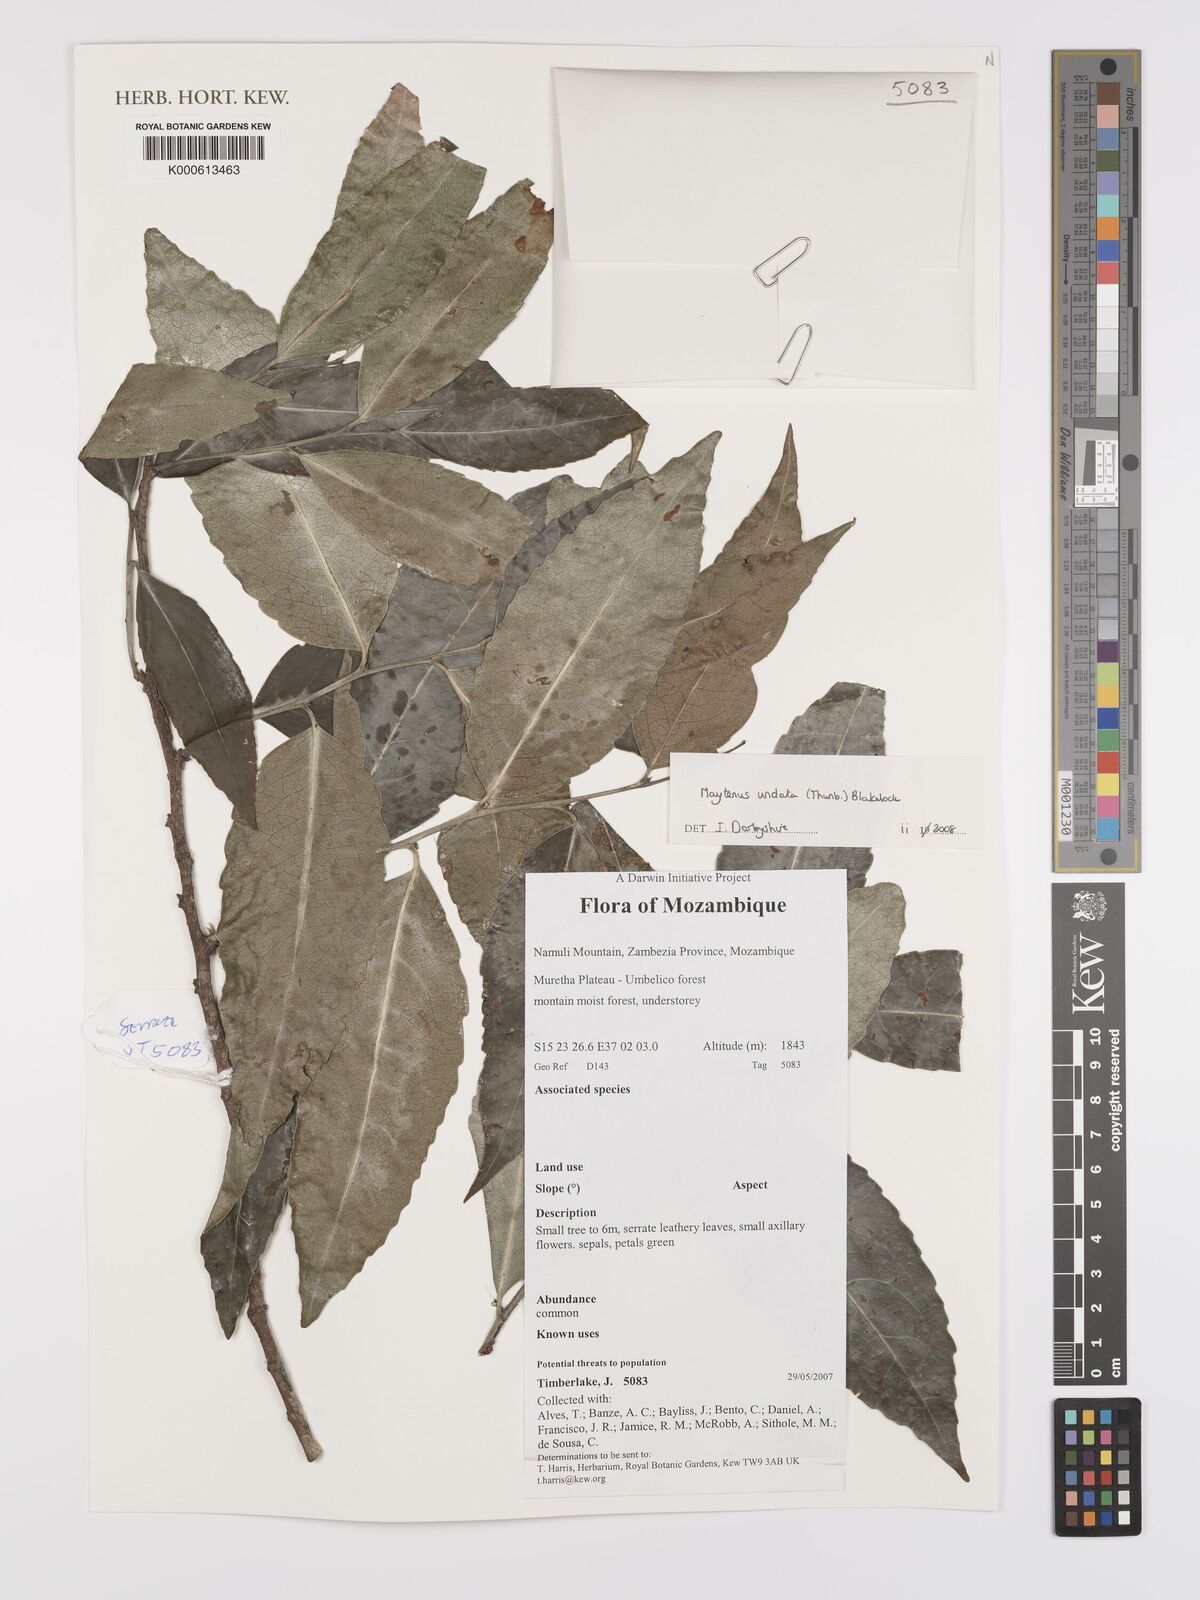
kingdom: Plantae
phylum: Tracheophyta
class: Magnoliopsida
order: Celastrales
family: Celastraceae
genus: Gymnosporia
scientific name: Gymnosporia undata
